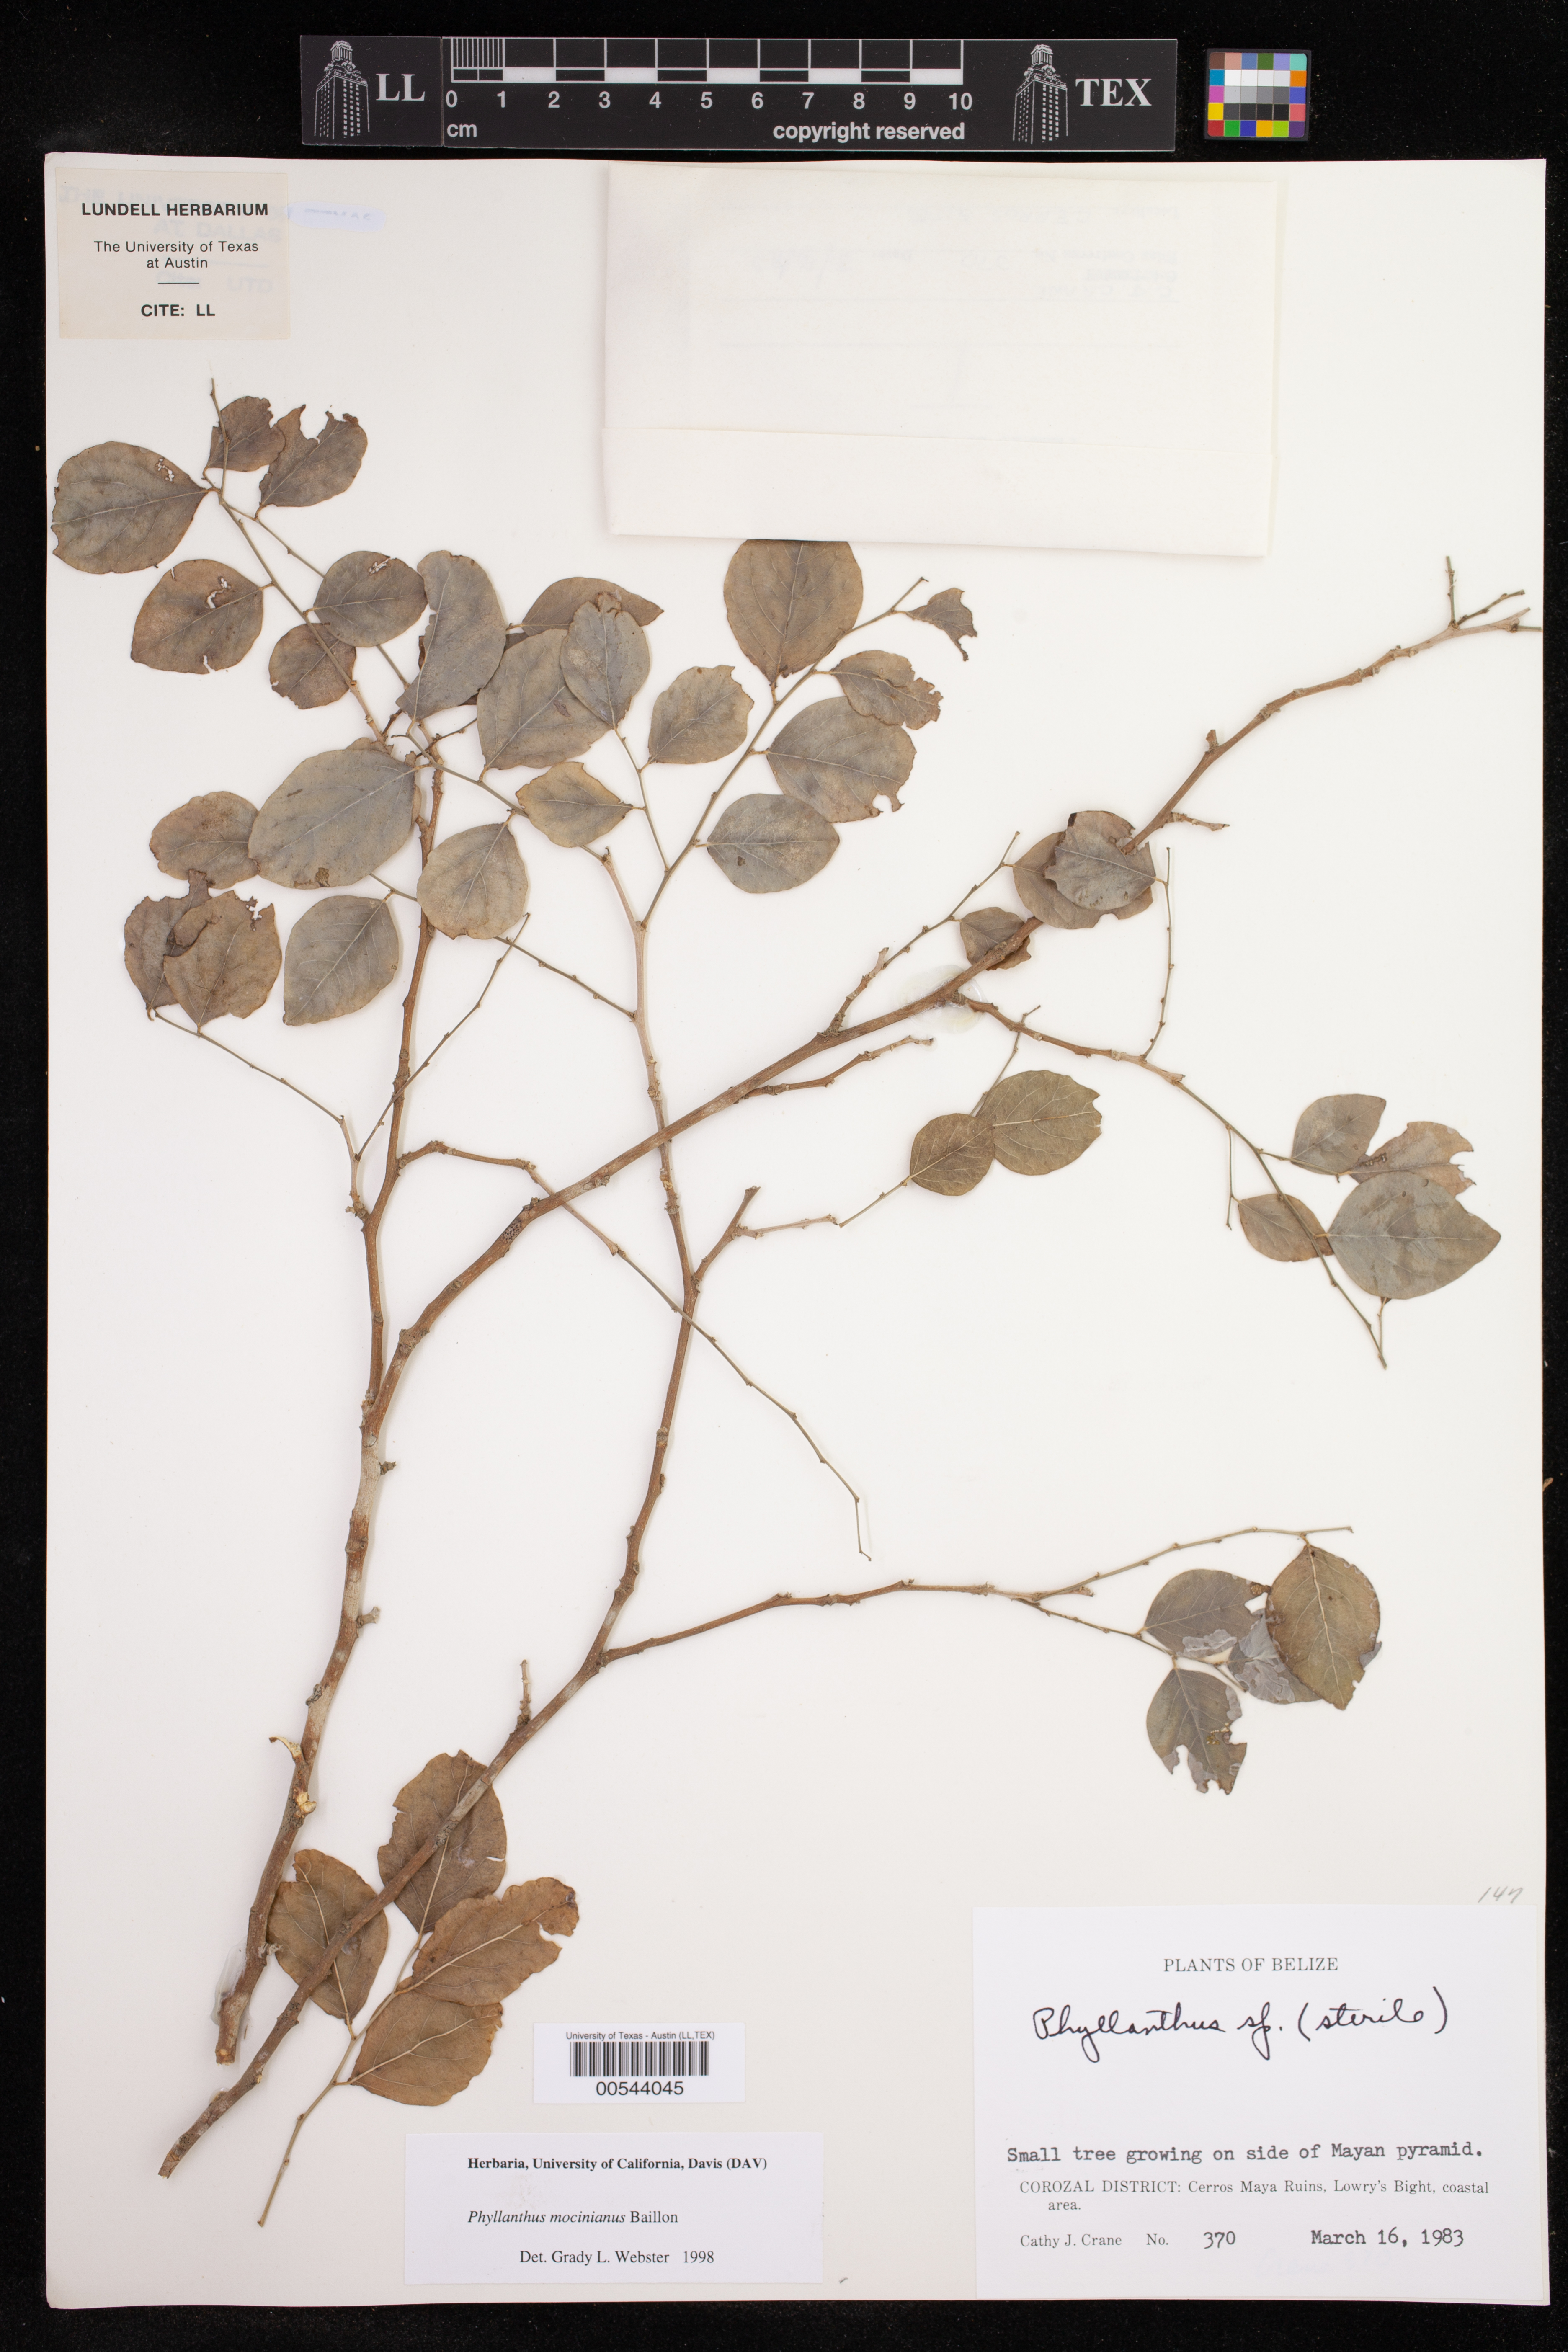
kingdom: Plantae
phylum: Tracheophyta
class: Magnoliopsida
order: Malpighiales
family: Phyllanthaceae
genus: Phyllanthus
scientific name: Phyllanthus mocinianus
